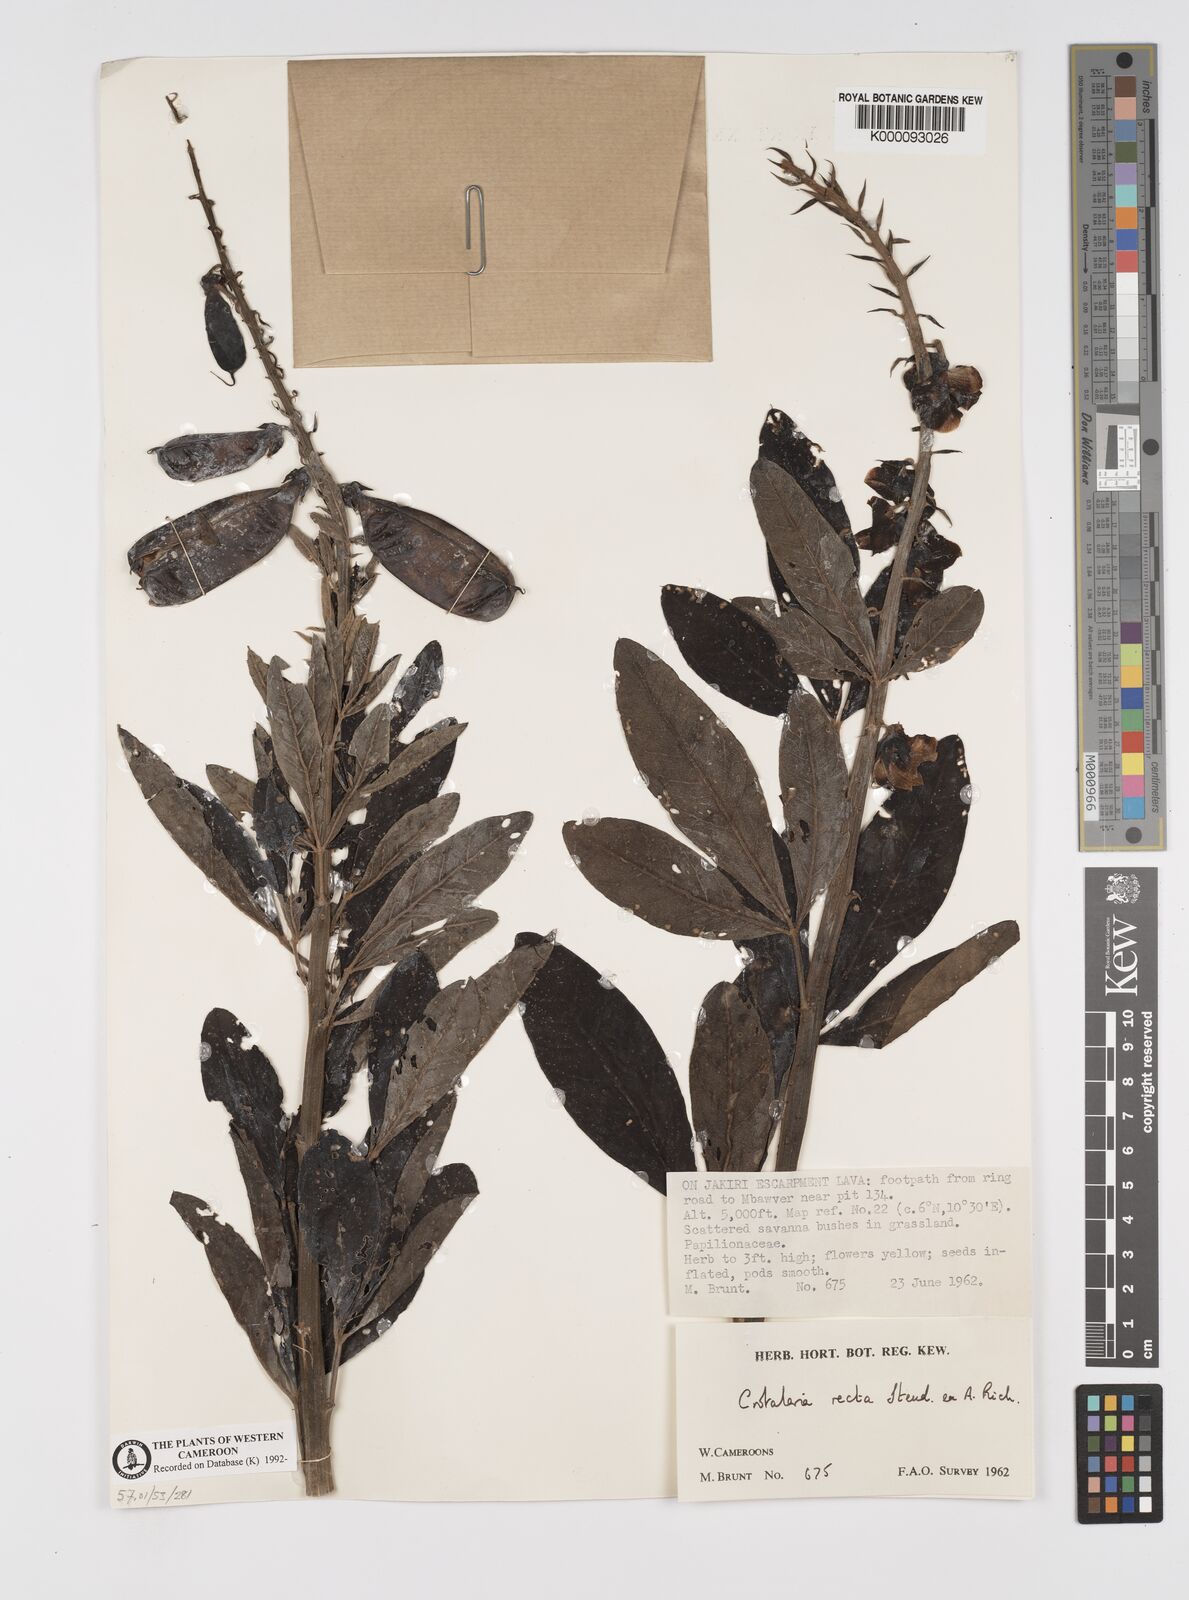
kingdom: Plantae
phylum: Tracheophyta
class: Magnoliopsida
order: Fabales
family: Fabaceae
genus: Crotalaria
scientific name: Crotalaria recta
